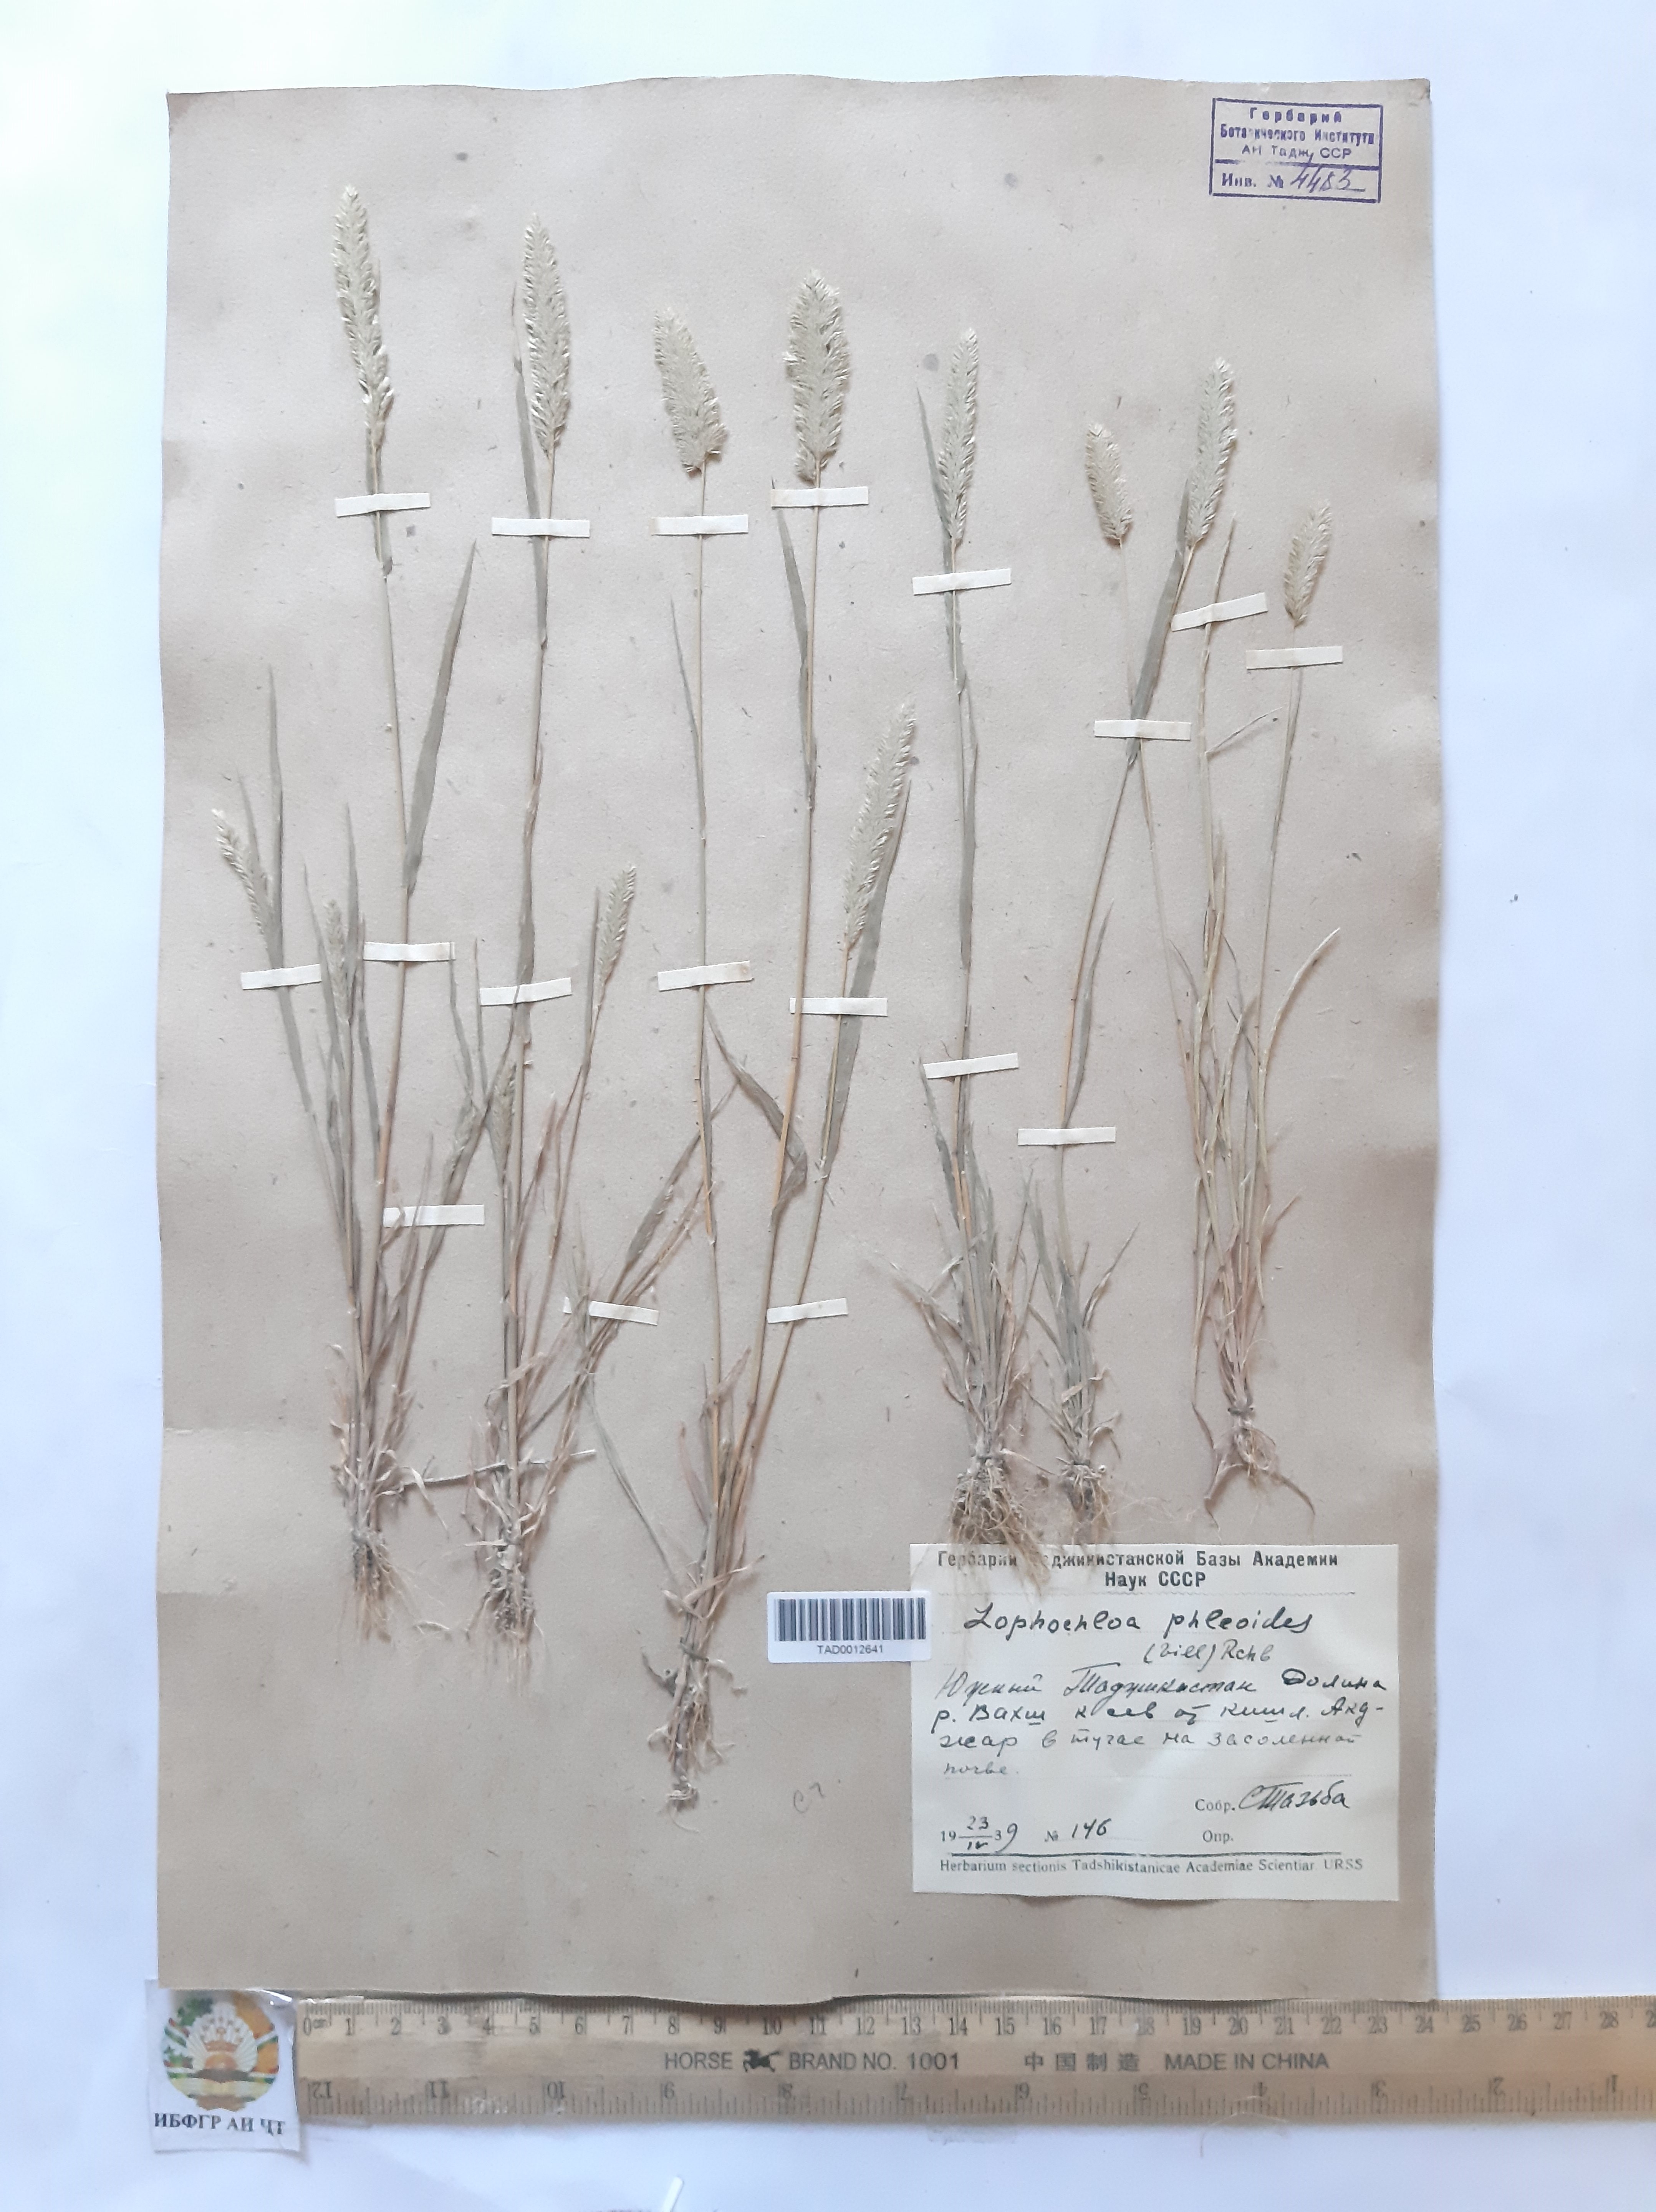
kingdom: Plantae
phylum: Tracheophyta
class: Liliopsida
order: Poales
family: Poaceae
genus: Rostraria
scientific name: Rostraria cristata
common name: Mediterranean hair-grass
